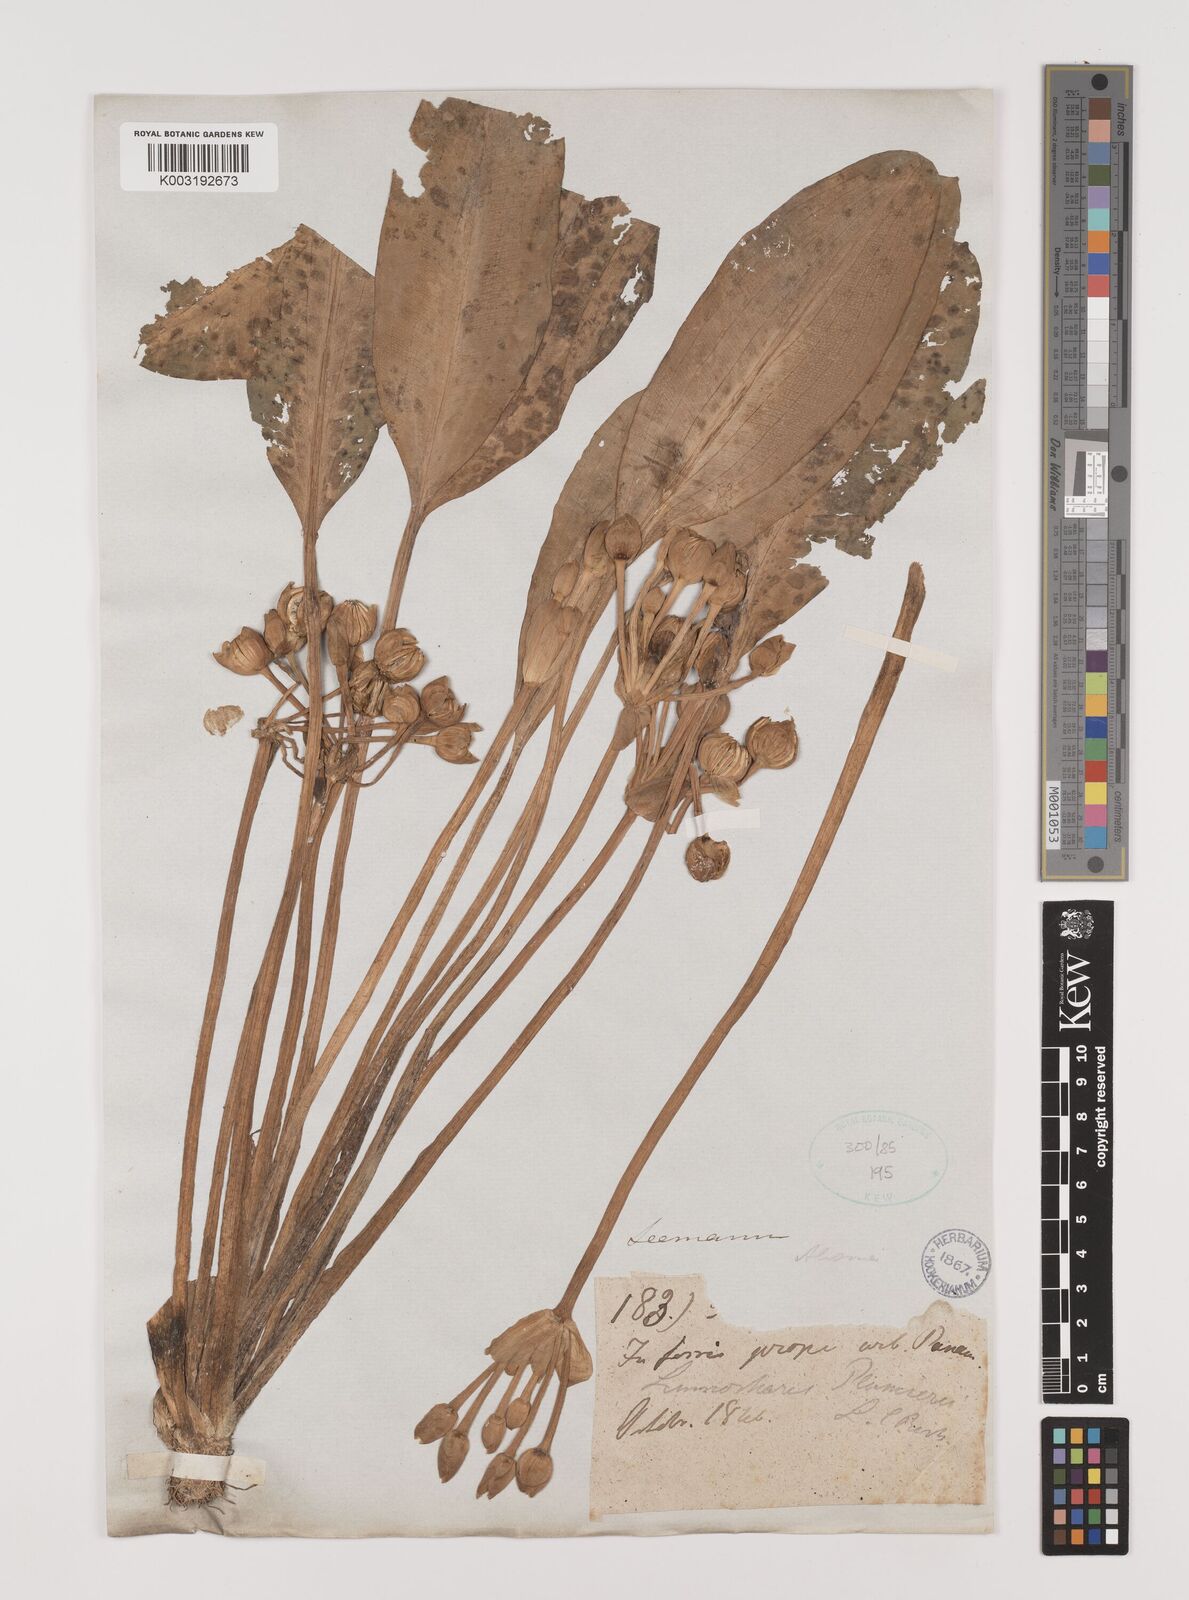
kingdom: Plantae
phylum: Tracheophyta
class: Liliopsida
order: Alismatales
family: Alismataceae
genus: Limnocharis
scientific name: Limnocharis flava
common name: Sawah-flower-rush
